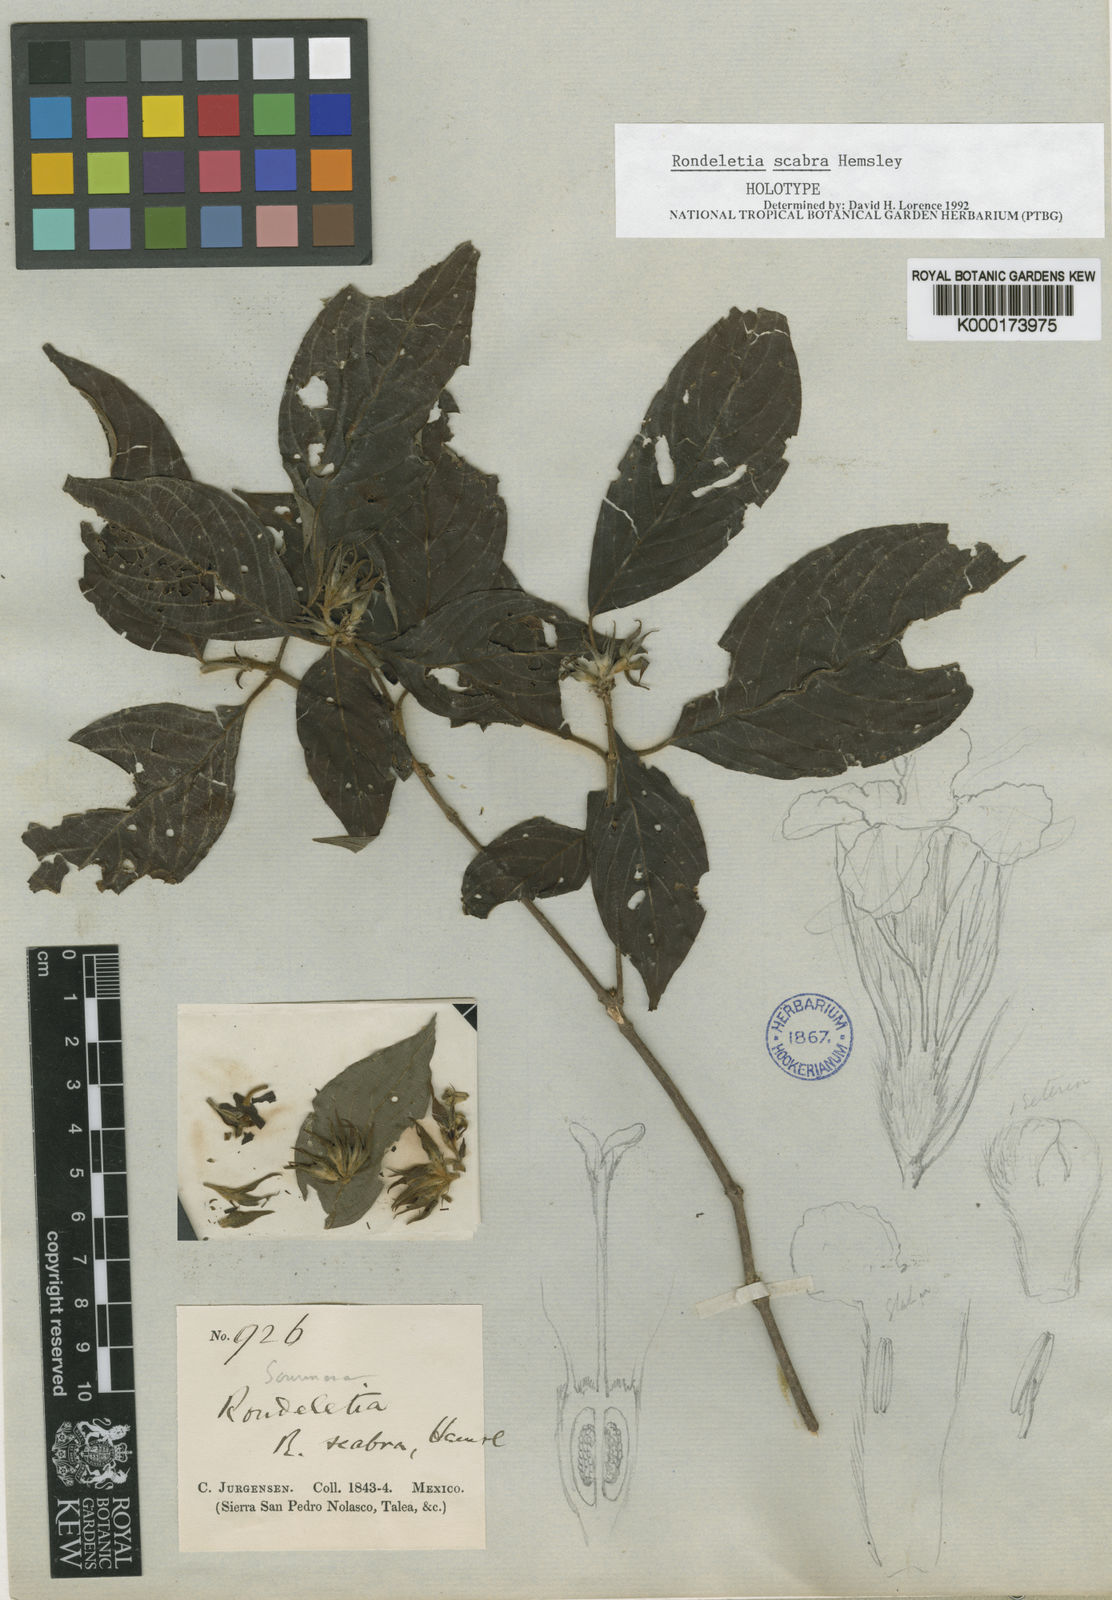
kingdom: Plantae
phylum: Tracheophyta
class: Magnoliopsida
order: Gentianales
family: Rubiaceae
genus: Arachnothryx
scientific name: Arachnothryx scabra
